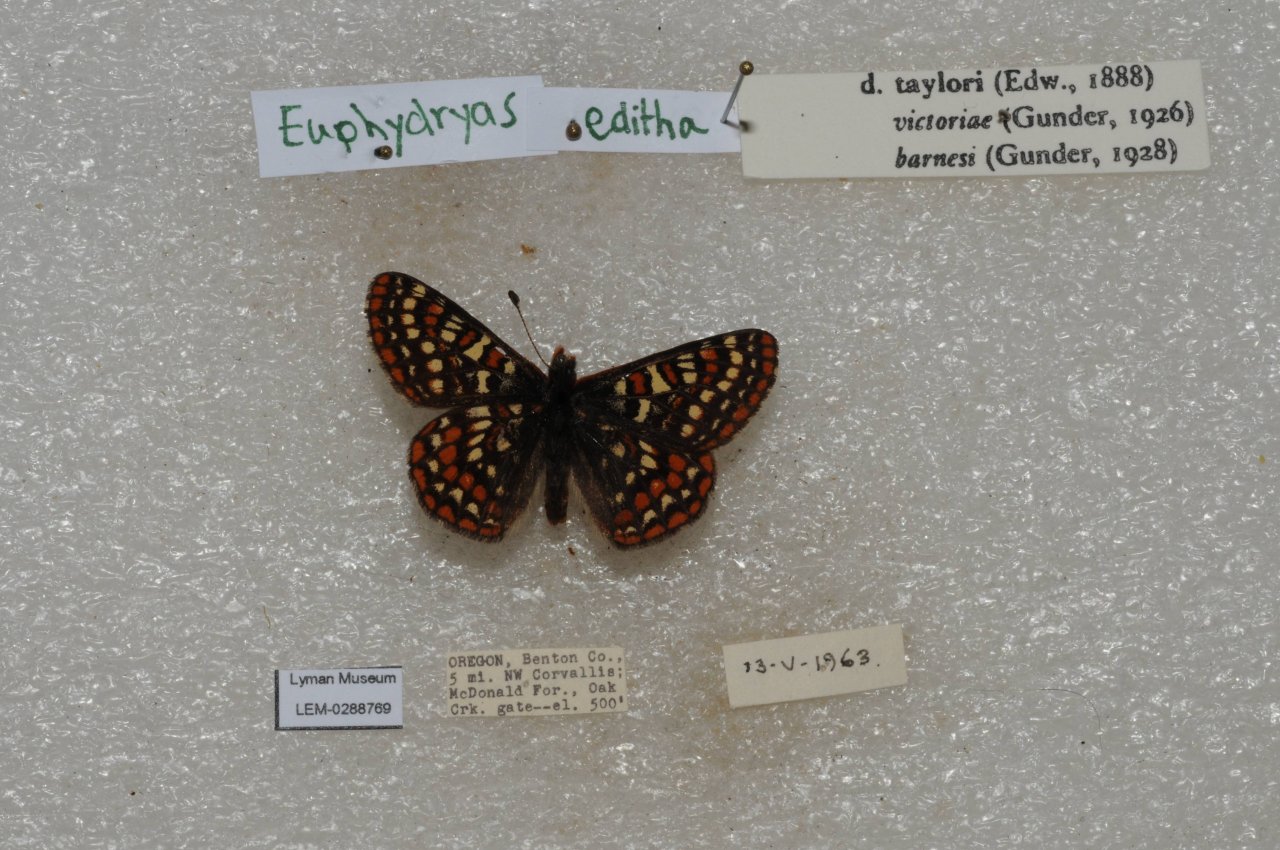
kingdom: Animalia
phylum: Arthropoda
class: Insecta
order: Lepidoptera
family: Nymphalidae
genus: Occidryas
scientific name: Occidryas editha
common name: Edith's Checkerspot
